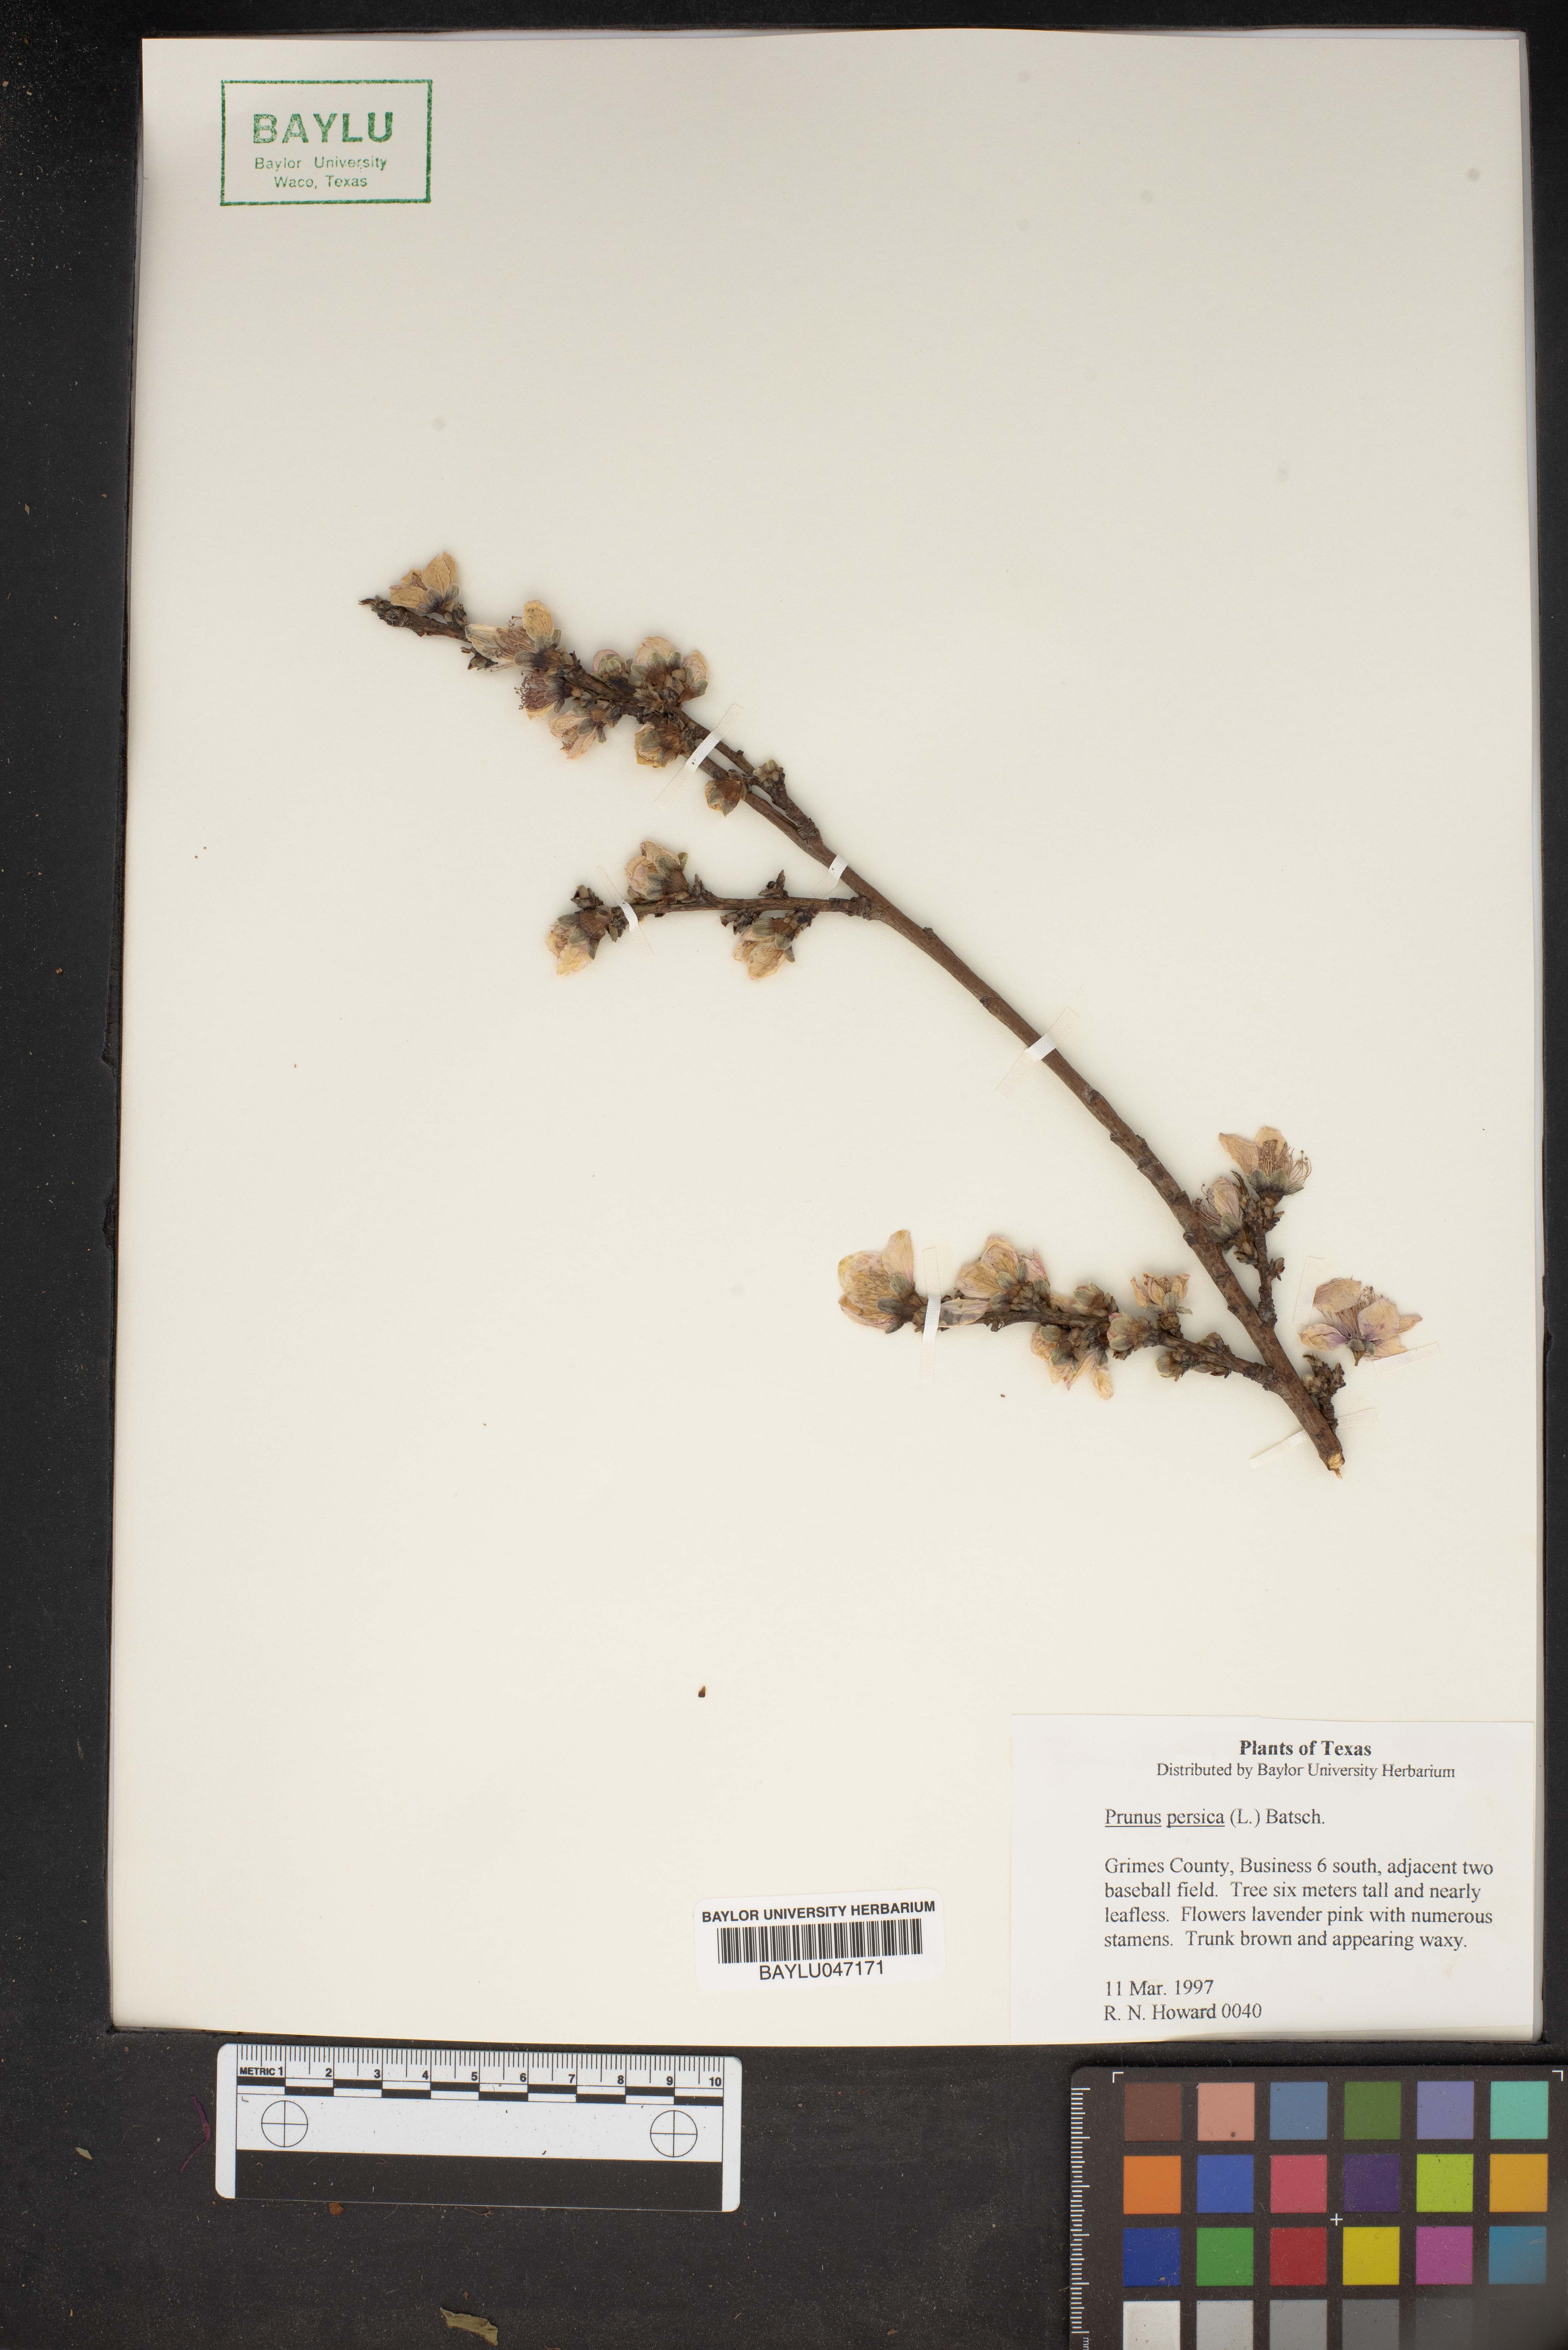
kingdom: Plantae
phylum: Tracheophyta
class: Magnoliopsida
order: Rosales
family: Rosaceae
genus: Prunus
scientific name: Prunus persica
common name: Peach
